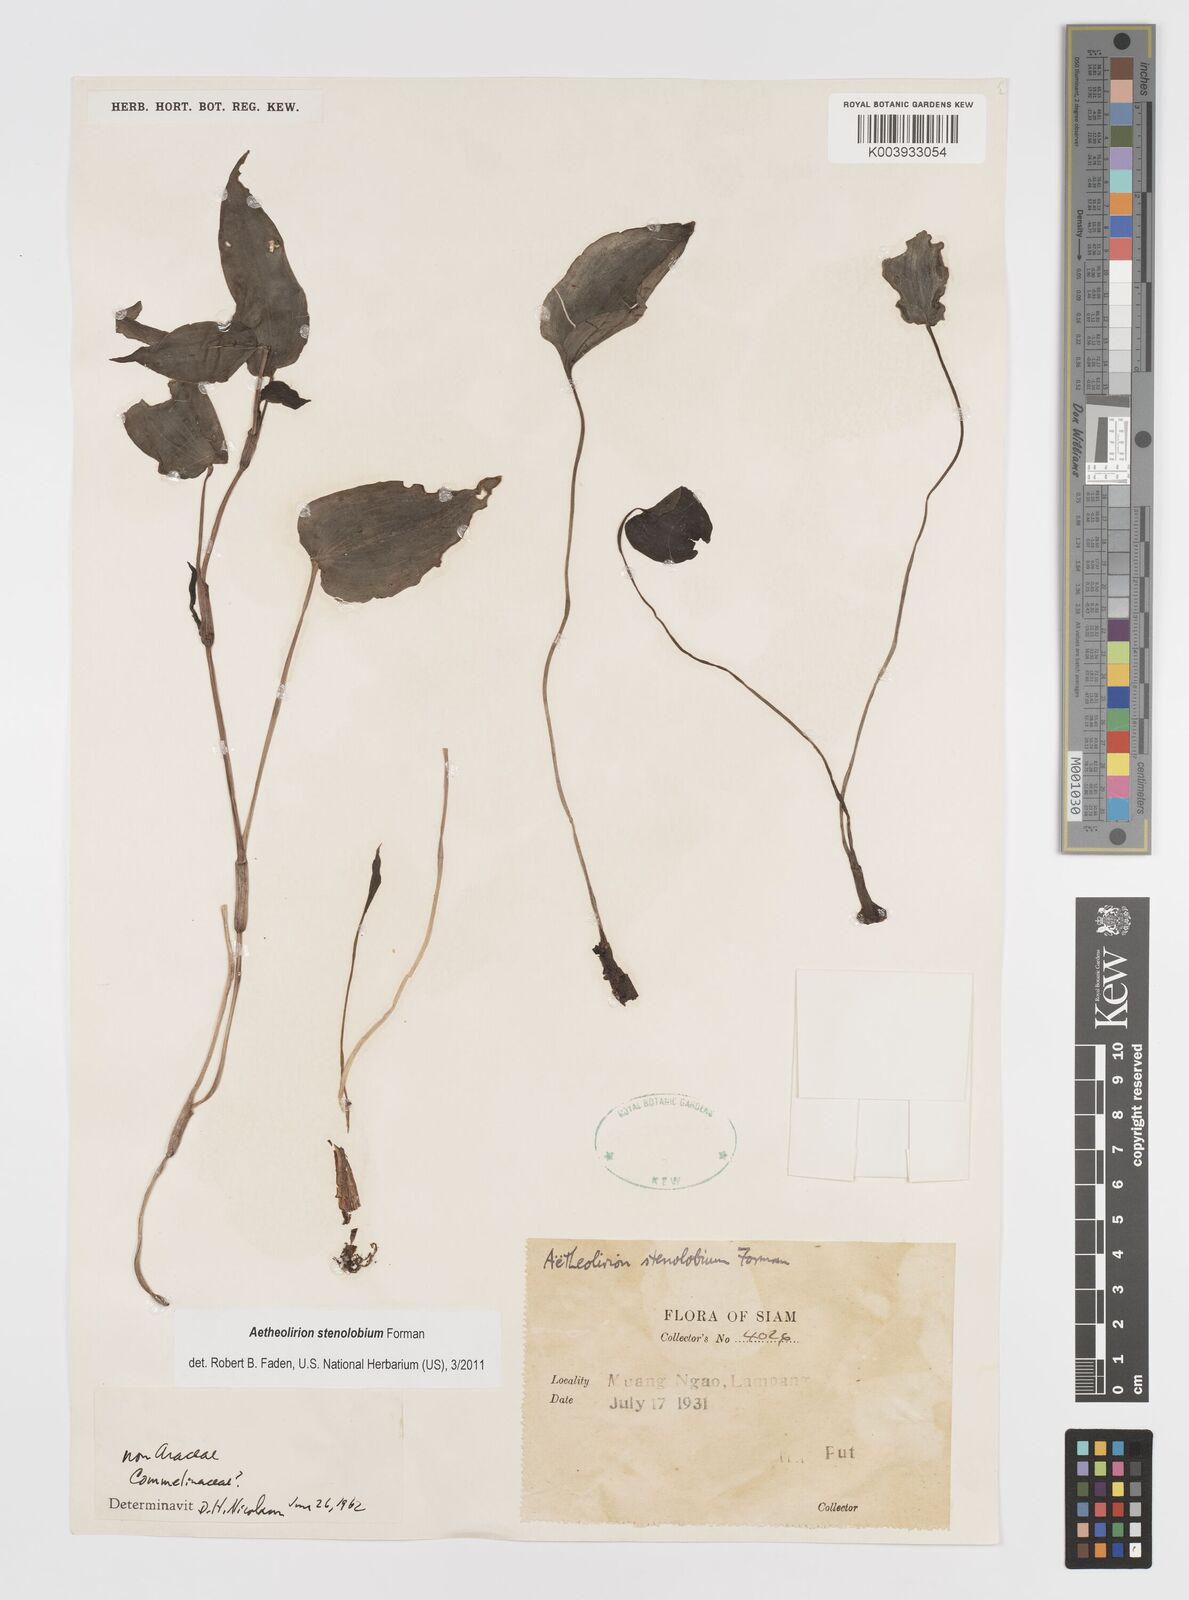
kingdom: Plantae
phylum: Tracheophyta
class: Liliopsida
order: Commelinales
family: Commelinaceae
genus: Aetheolirion
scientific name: Aetheolirion stenolobium
